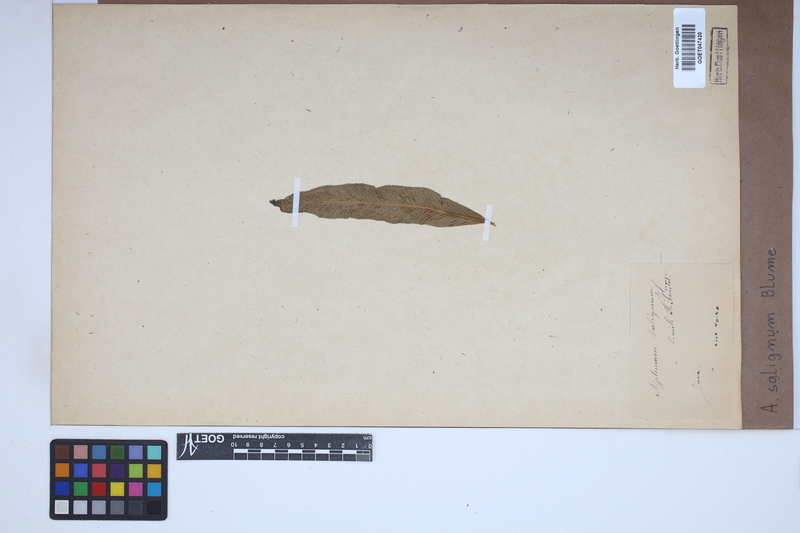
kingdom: Plantae
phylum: Tracheophyta
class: Polypodiopsida
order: Polypodiales
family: Aspleniaceae
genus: Asplenium
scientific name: Asplenium salignum
